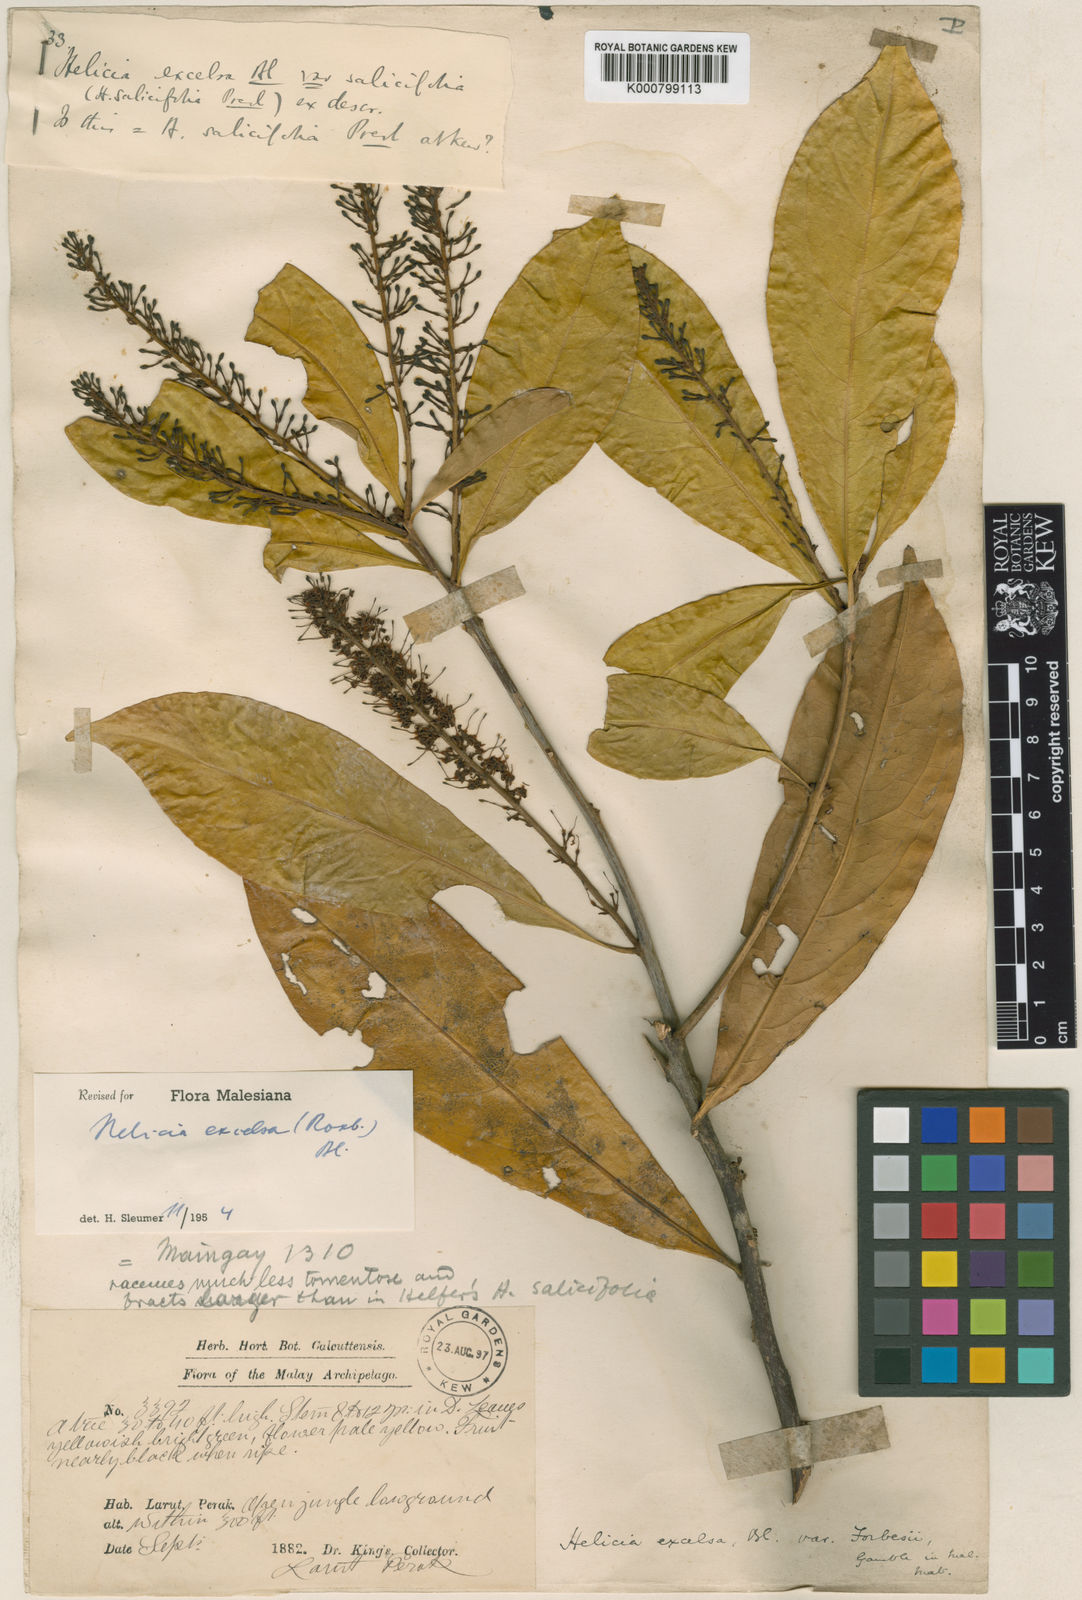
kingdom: Plantae
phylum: Tracheophyta
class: Magnoliopsida
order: Proteales
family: Proteaceae
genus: Helicia
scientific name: Helicia excelsa
